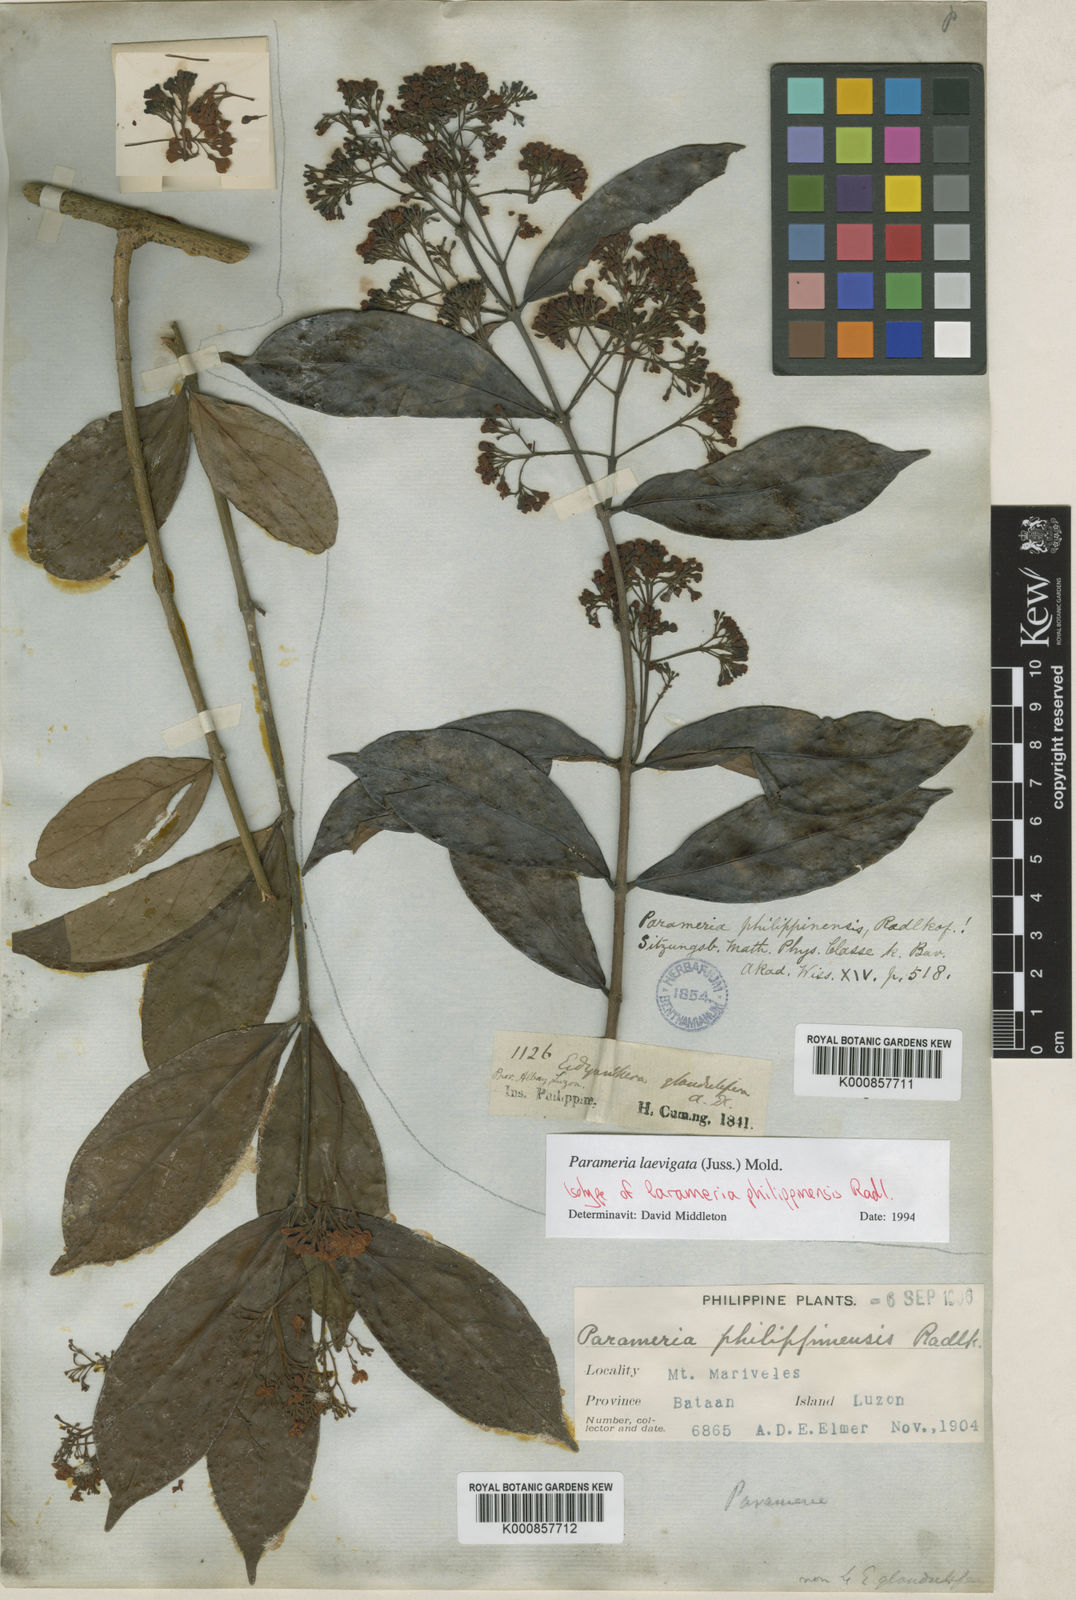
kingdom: Plantae
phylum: Tracheophyta
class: Magnoliopsida
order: Gentianales
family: Apocynaceae
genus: Urceola
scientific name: Urceola laevigata
